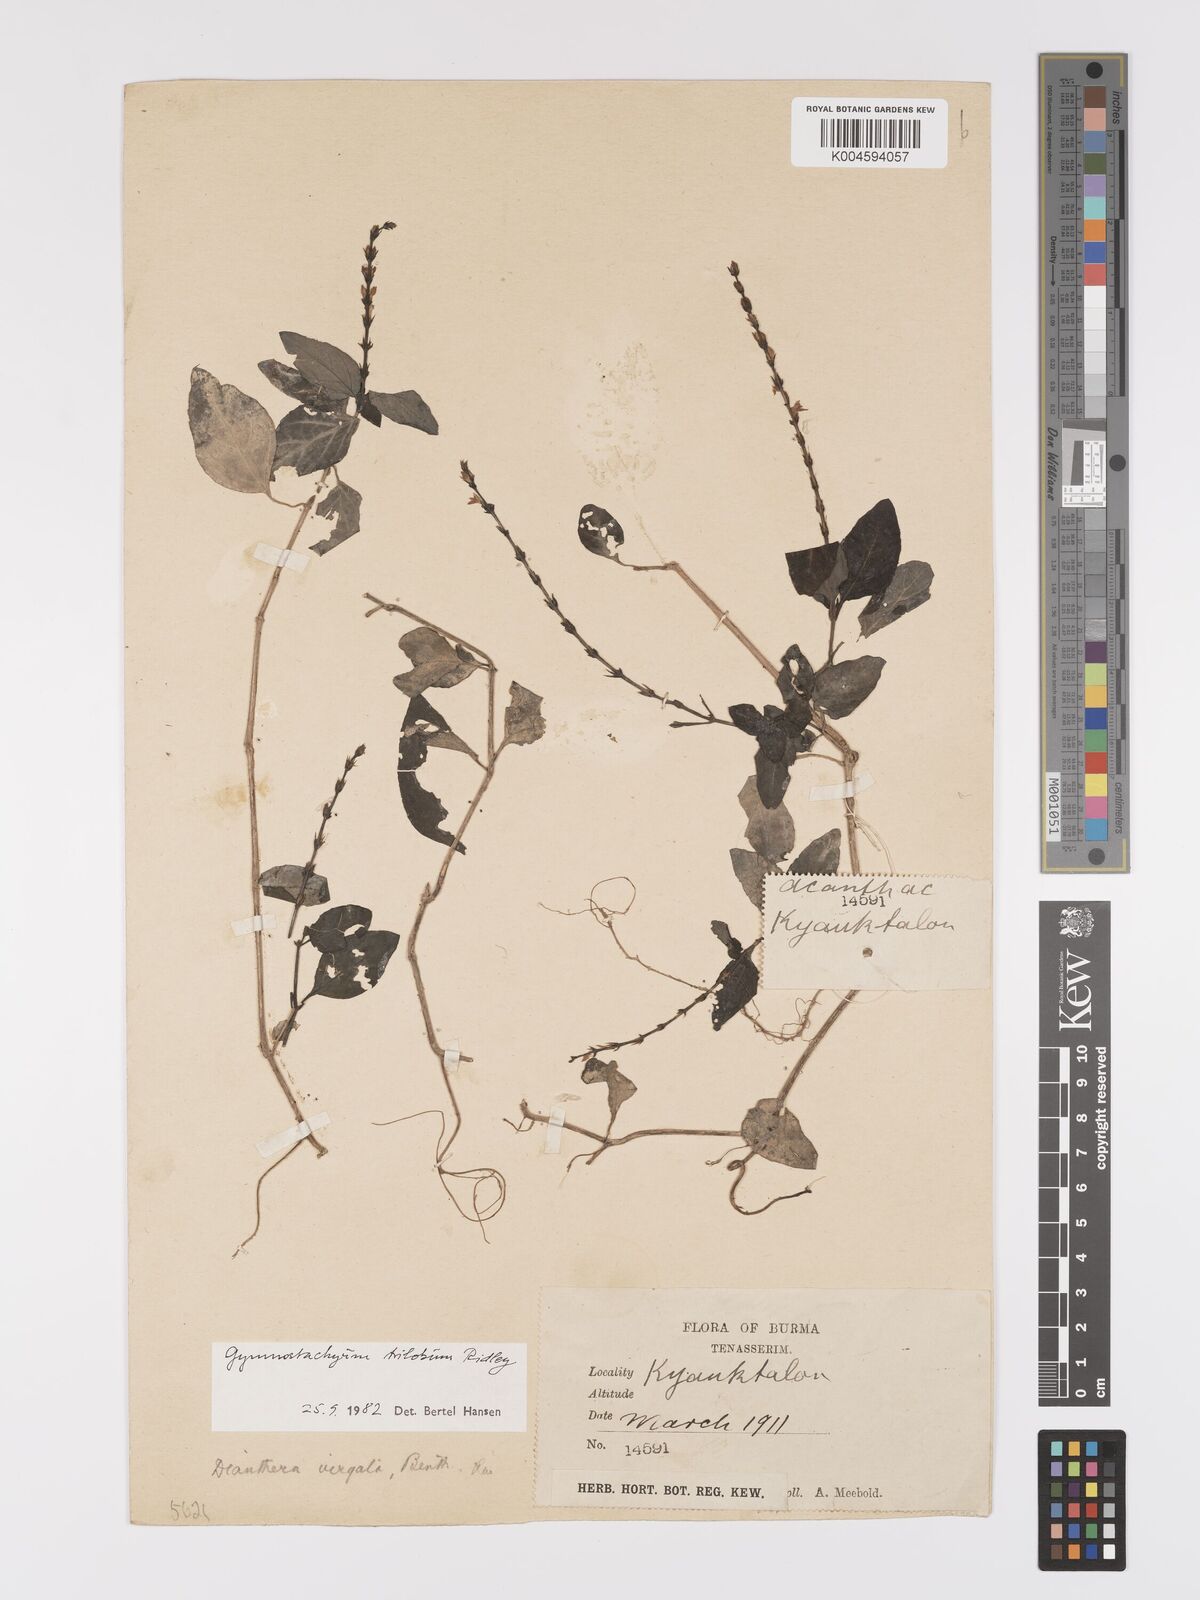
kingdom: Plantae
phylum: Tracheophyta
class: Magnoliopsida
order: Lamiales
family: Acanthaceae
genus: Gymnostachyum
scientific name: Gymnostachyum trilobum
